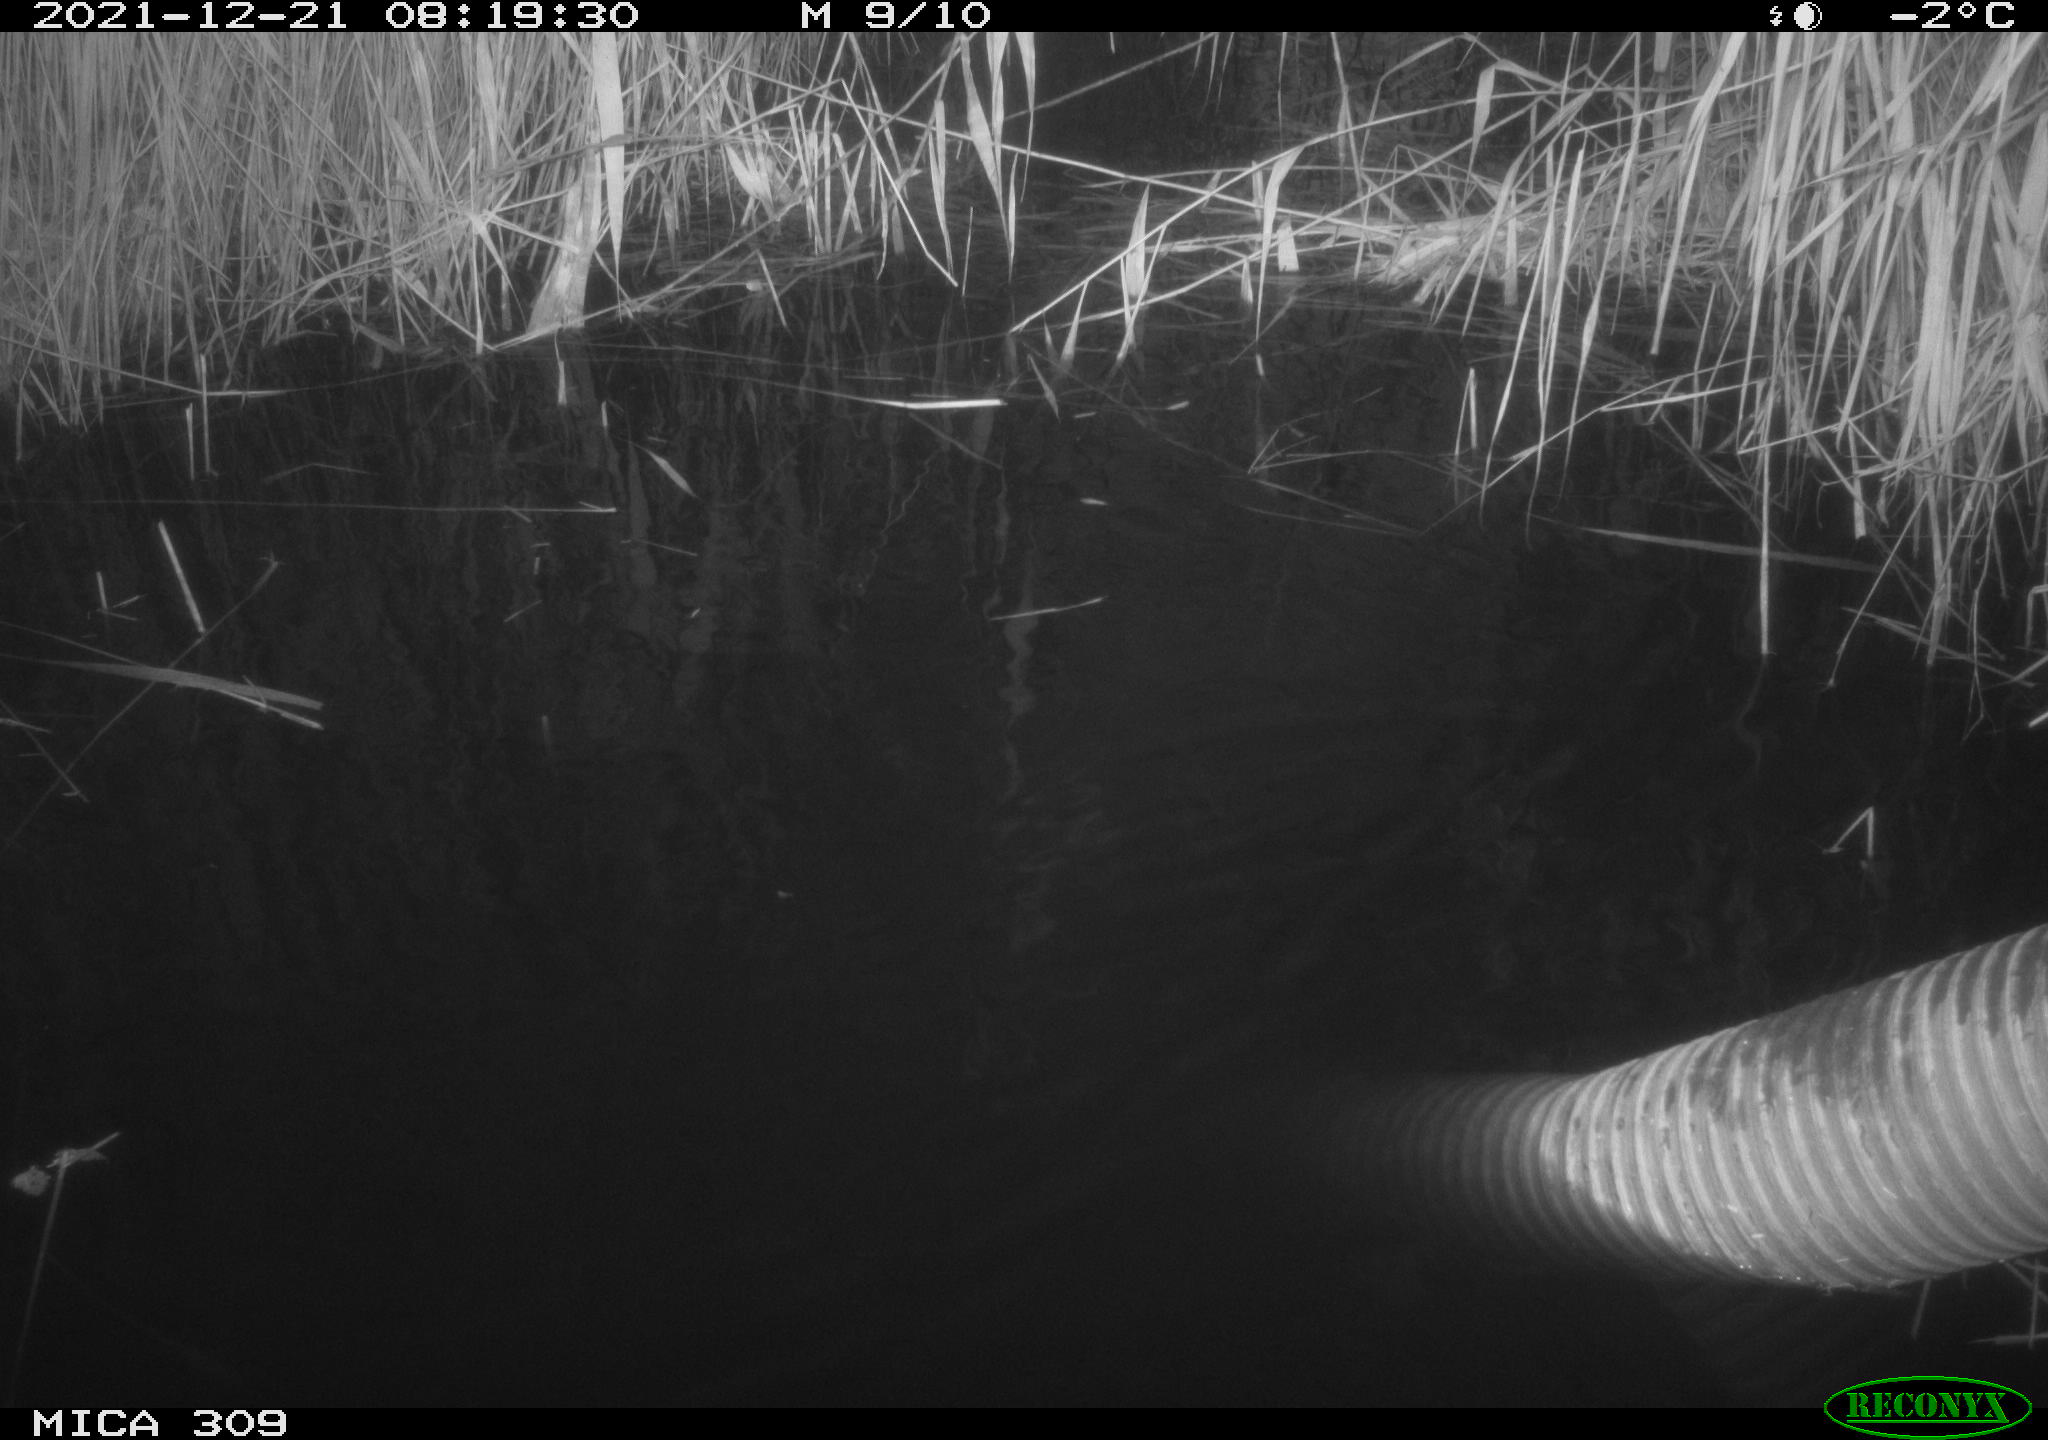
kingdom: Animalia
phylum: Chordata
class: Aves
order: Gruiformes
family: Rallidae
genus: Gallinula
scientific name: Gallinula chloropus
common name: Common moorhen
